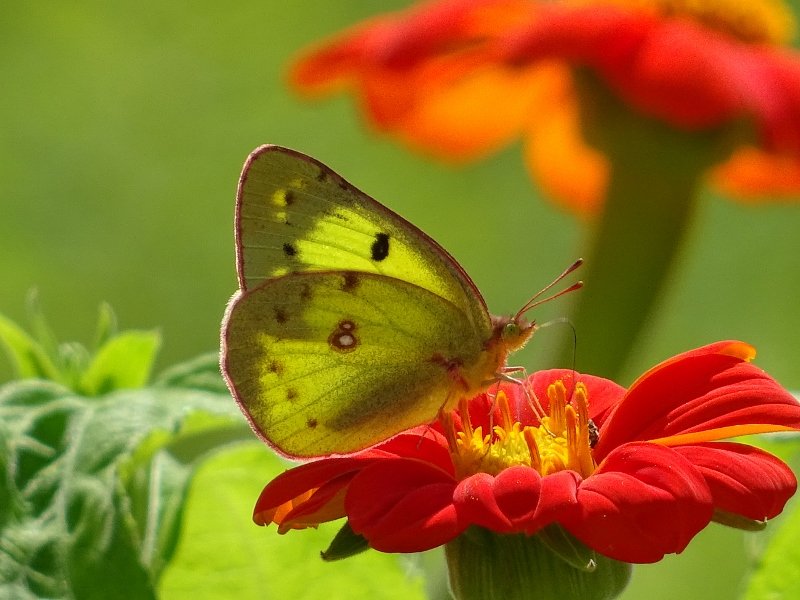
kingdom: Animalia
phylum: Arthropoda
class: Insecta
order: Lepidoptera
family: Pieridae
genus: Colias
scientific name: Colias philodice
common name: Clouded Sulphur
